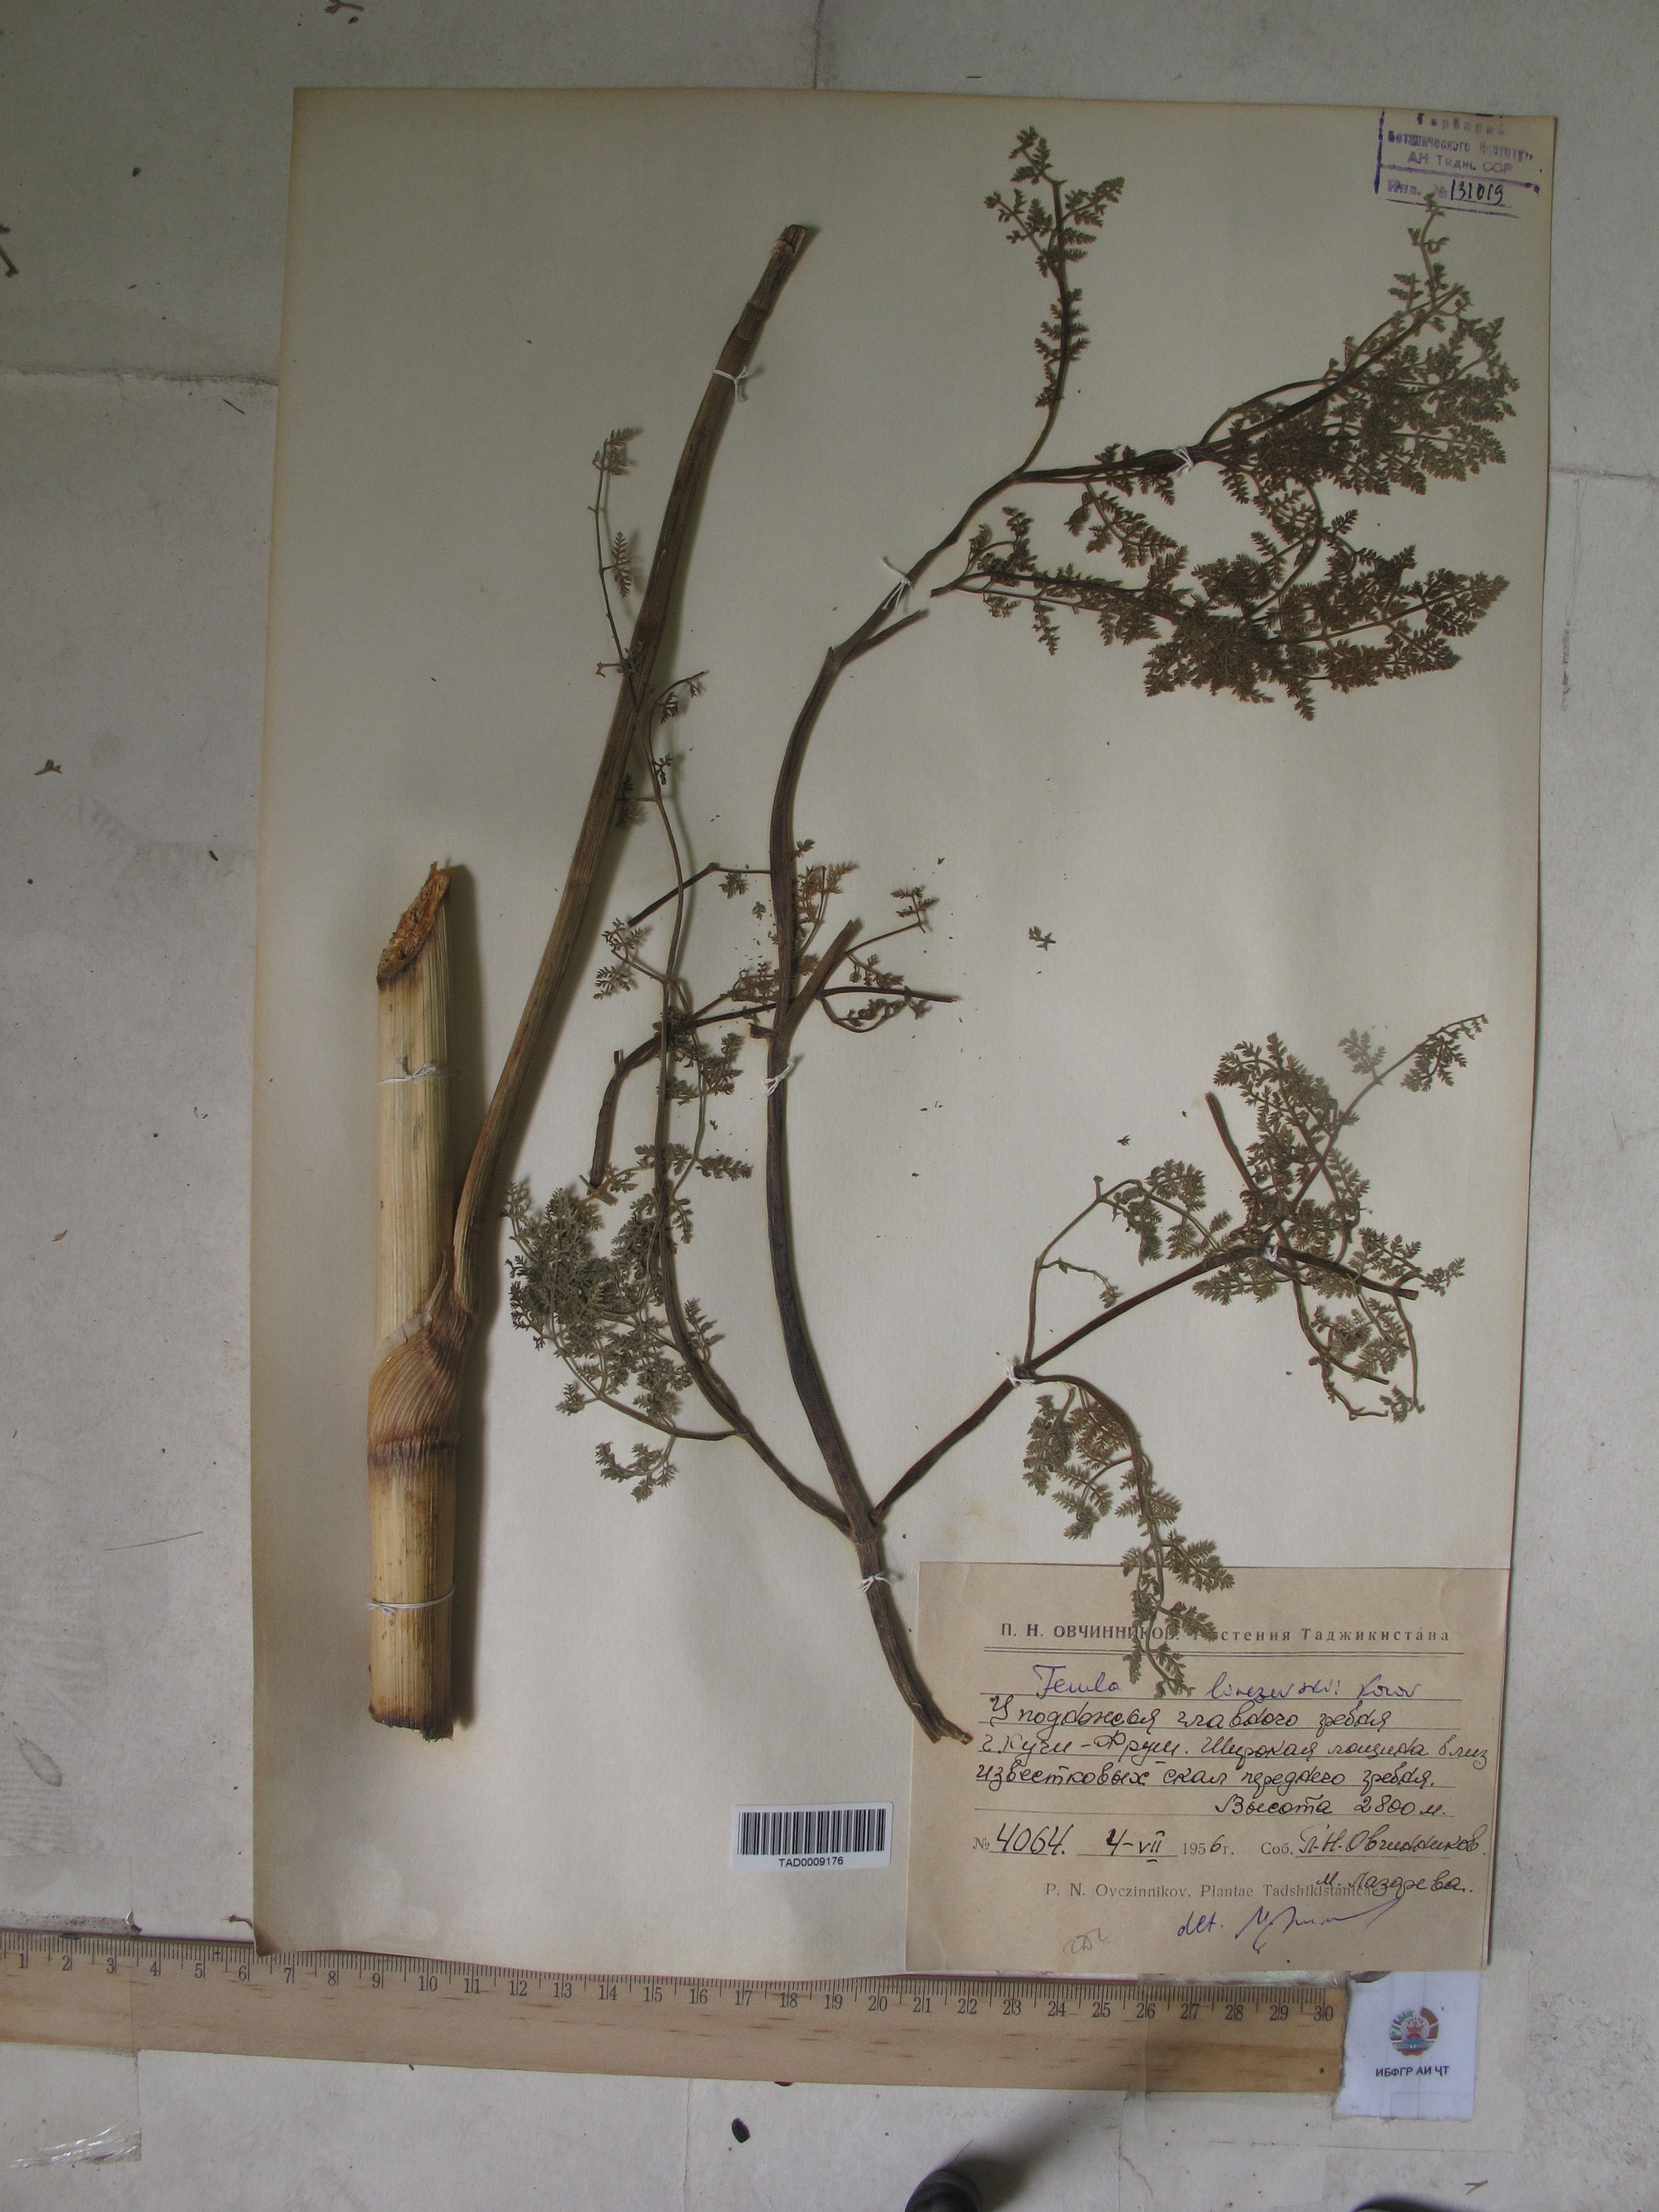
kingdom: Plantae
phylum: Tracheophyta
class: Magnoliopsida
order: Apiales
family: Apiaceae
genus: Ferula
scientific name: Ferula linczevskii
